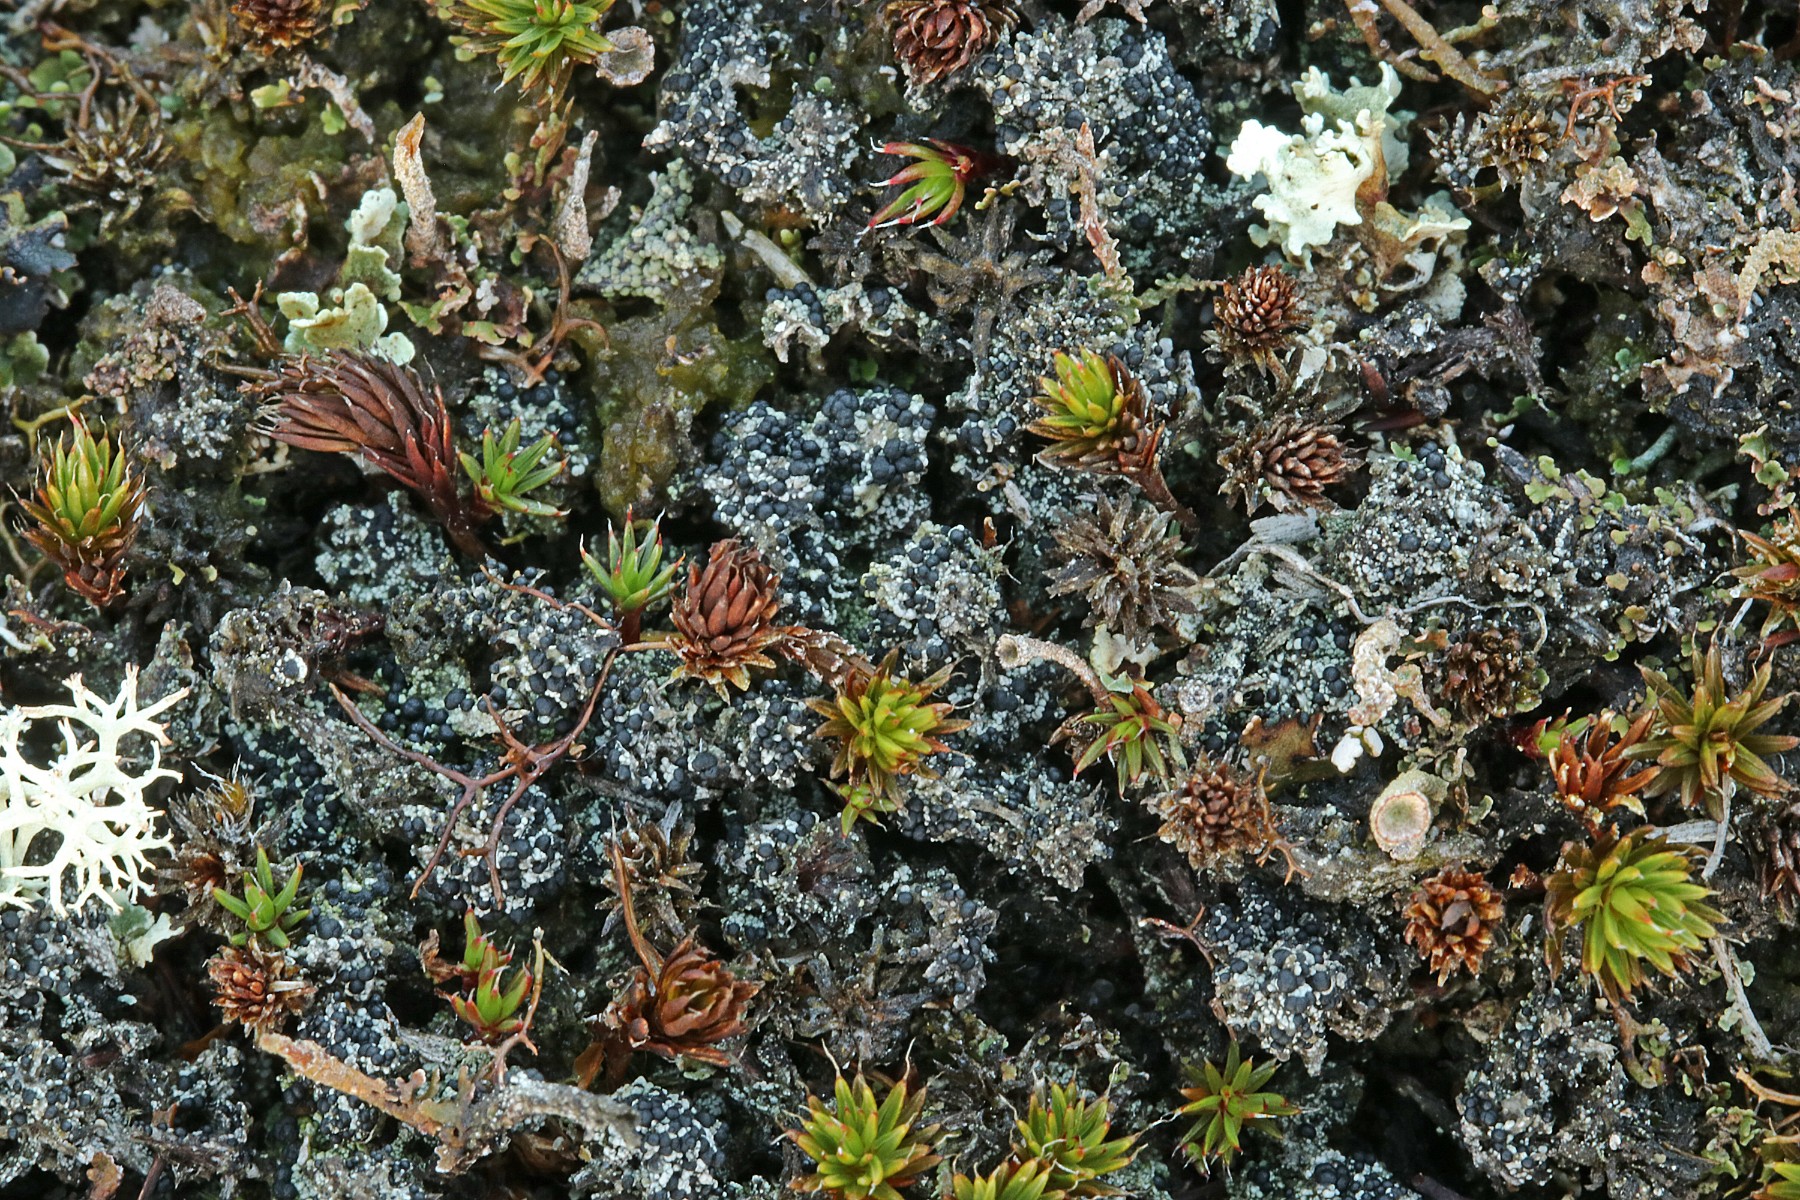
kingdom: Fungi
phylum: Ascomycota
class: Lecanoromycetes
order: Lecanorales
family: Byssolomataceae
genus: Micarea
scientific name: Micarea lignaria
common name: tørve-knaplav
